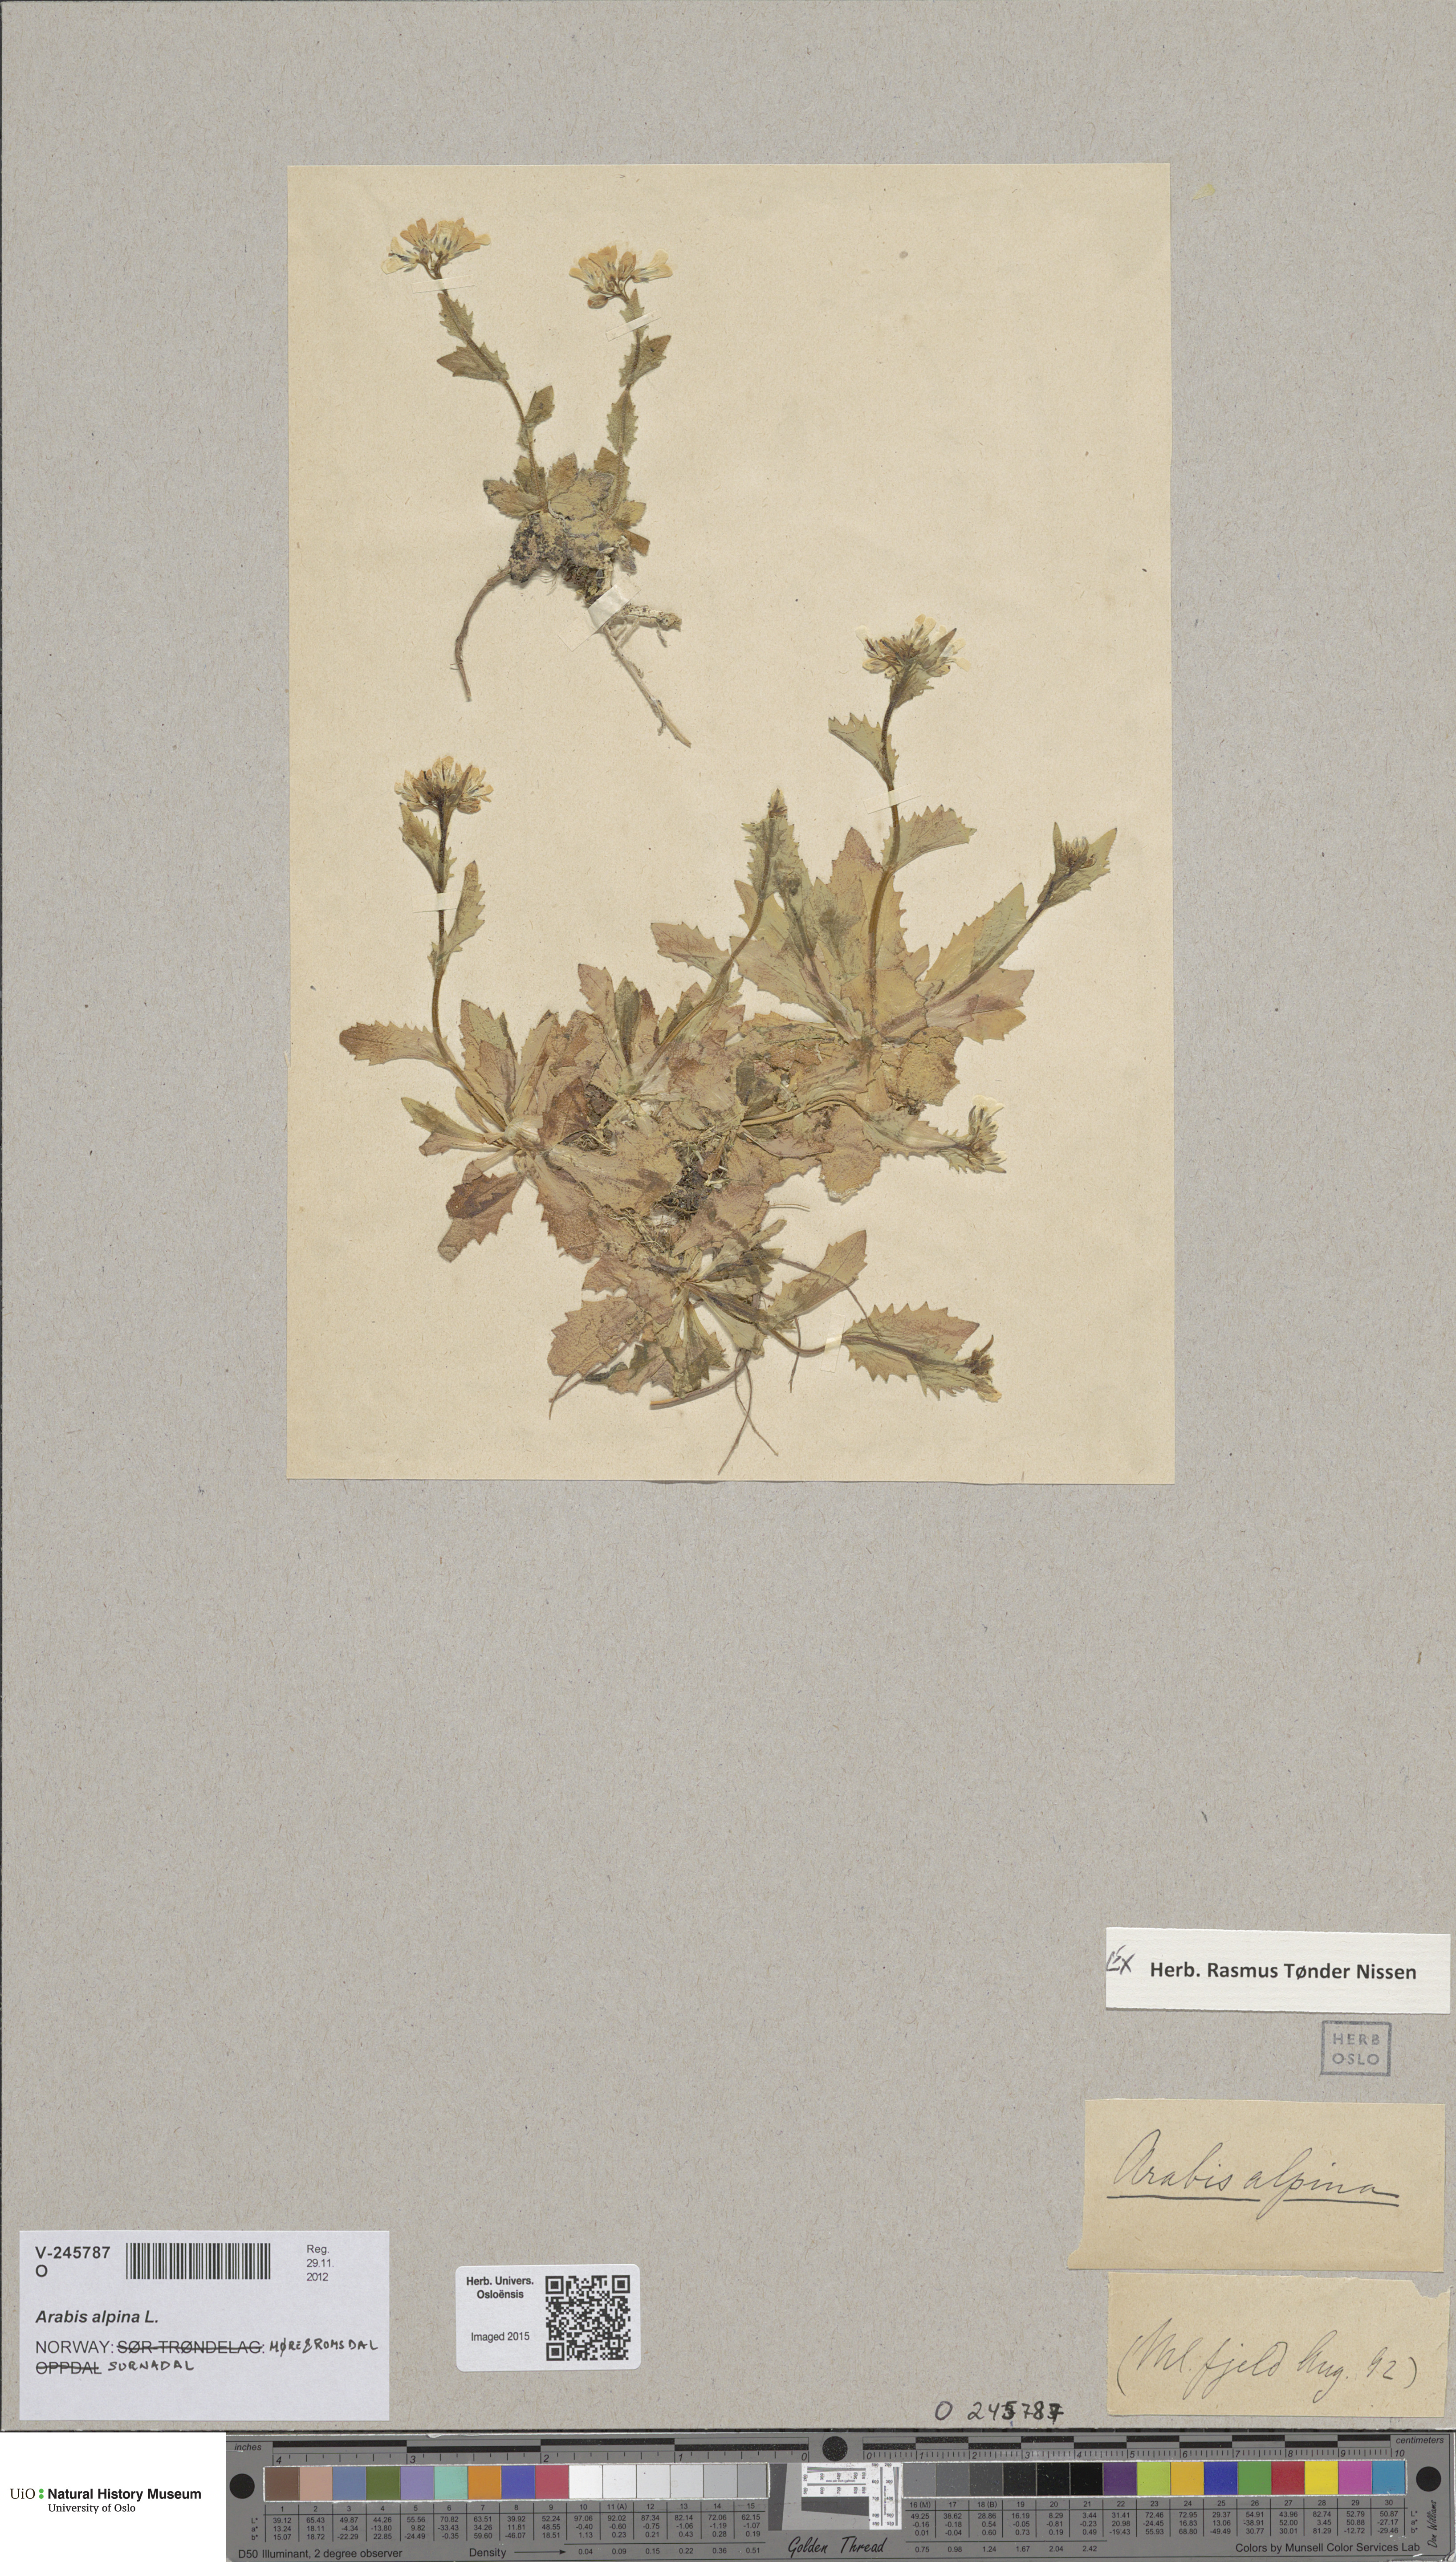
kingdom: Plantae
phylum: Tracheophyta
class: Magnoliopsida
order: Brassicales
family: Brassicaceae
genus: Arabis
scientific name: Arabis alpina
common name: Alpine rock-cress
